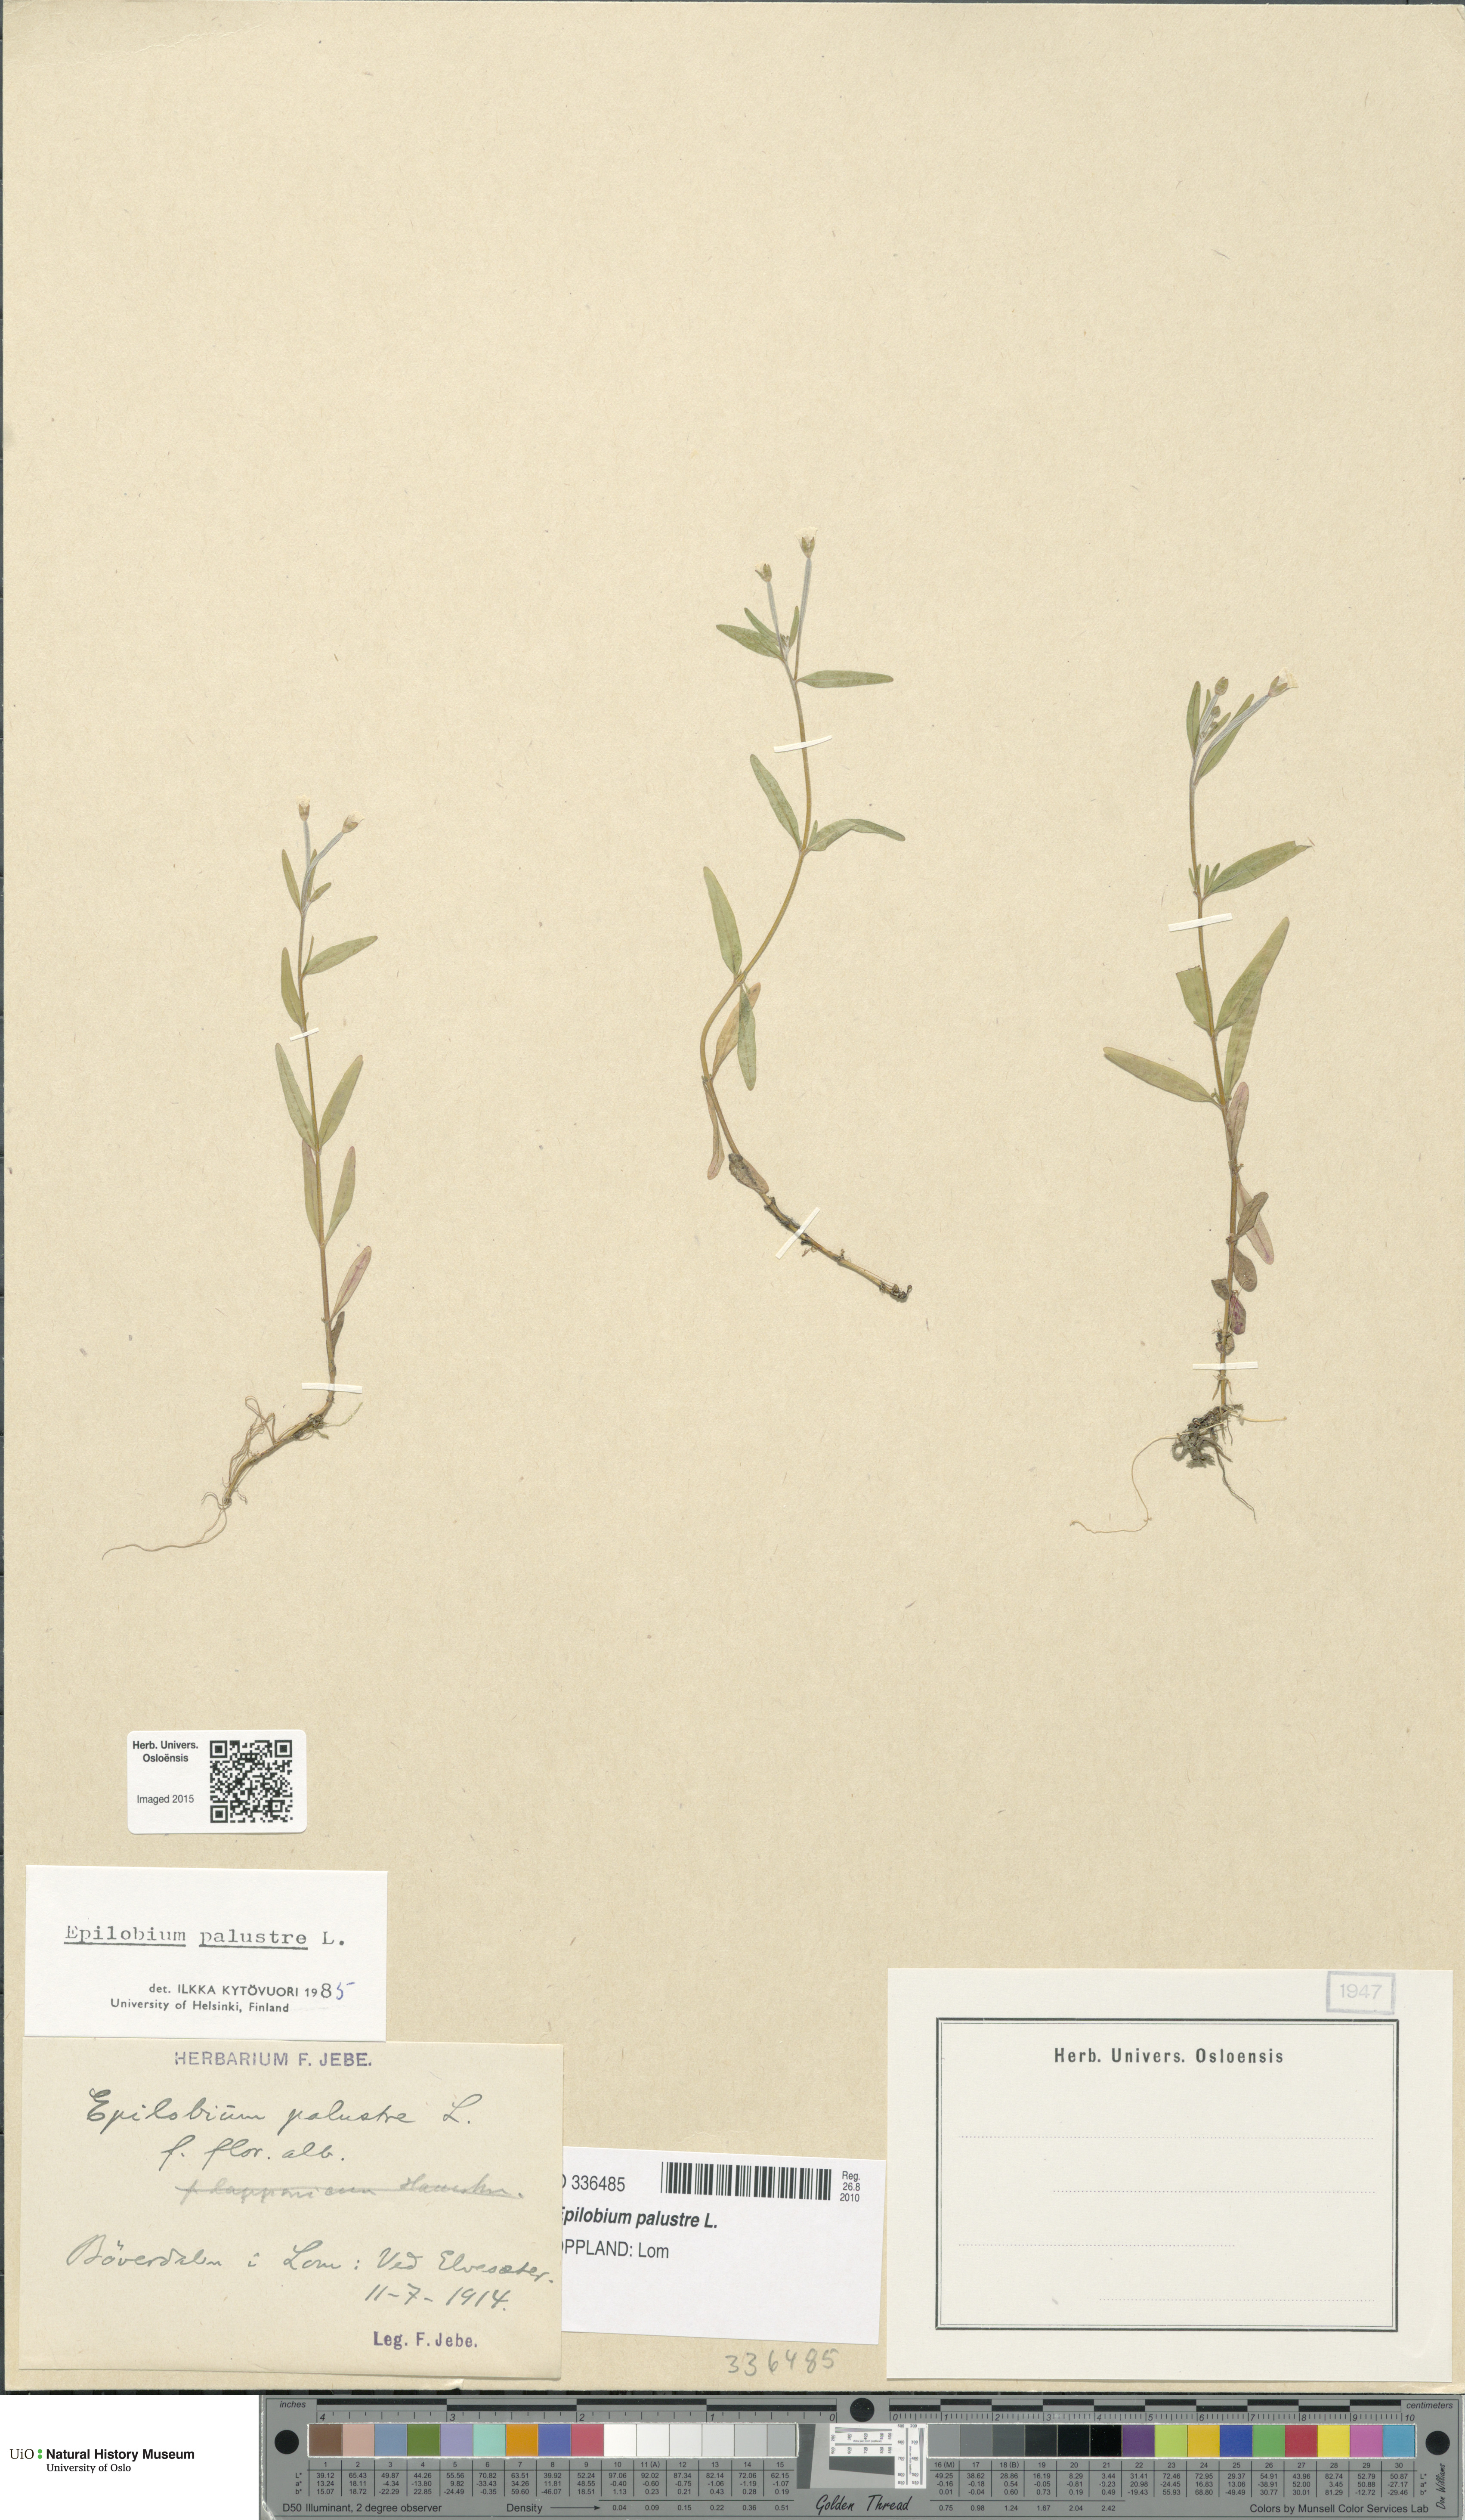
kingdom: Plantae
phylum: Tracheophyta
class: Magnoliopsida
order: Myrtales
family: Onagraceae
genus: Epilobium
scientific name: Epilobium palustre
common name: Marsh willowherb
